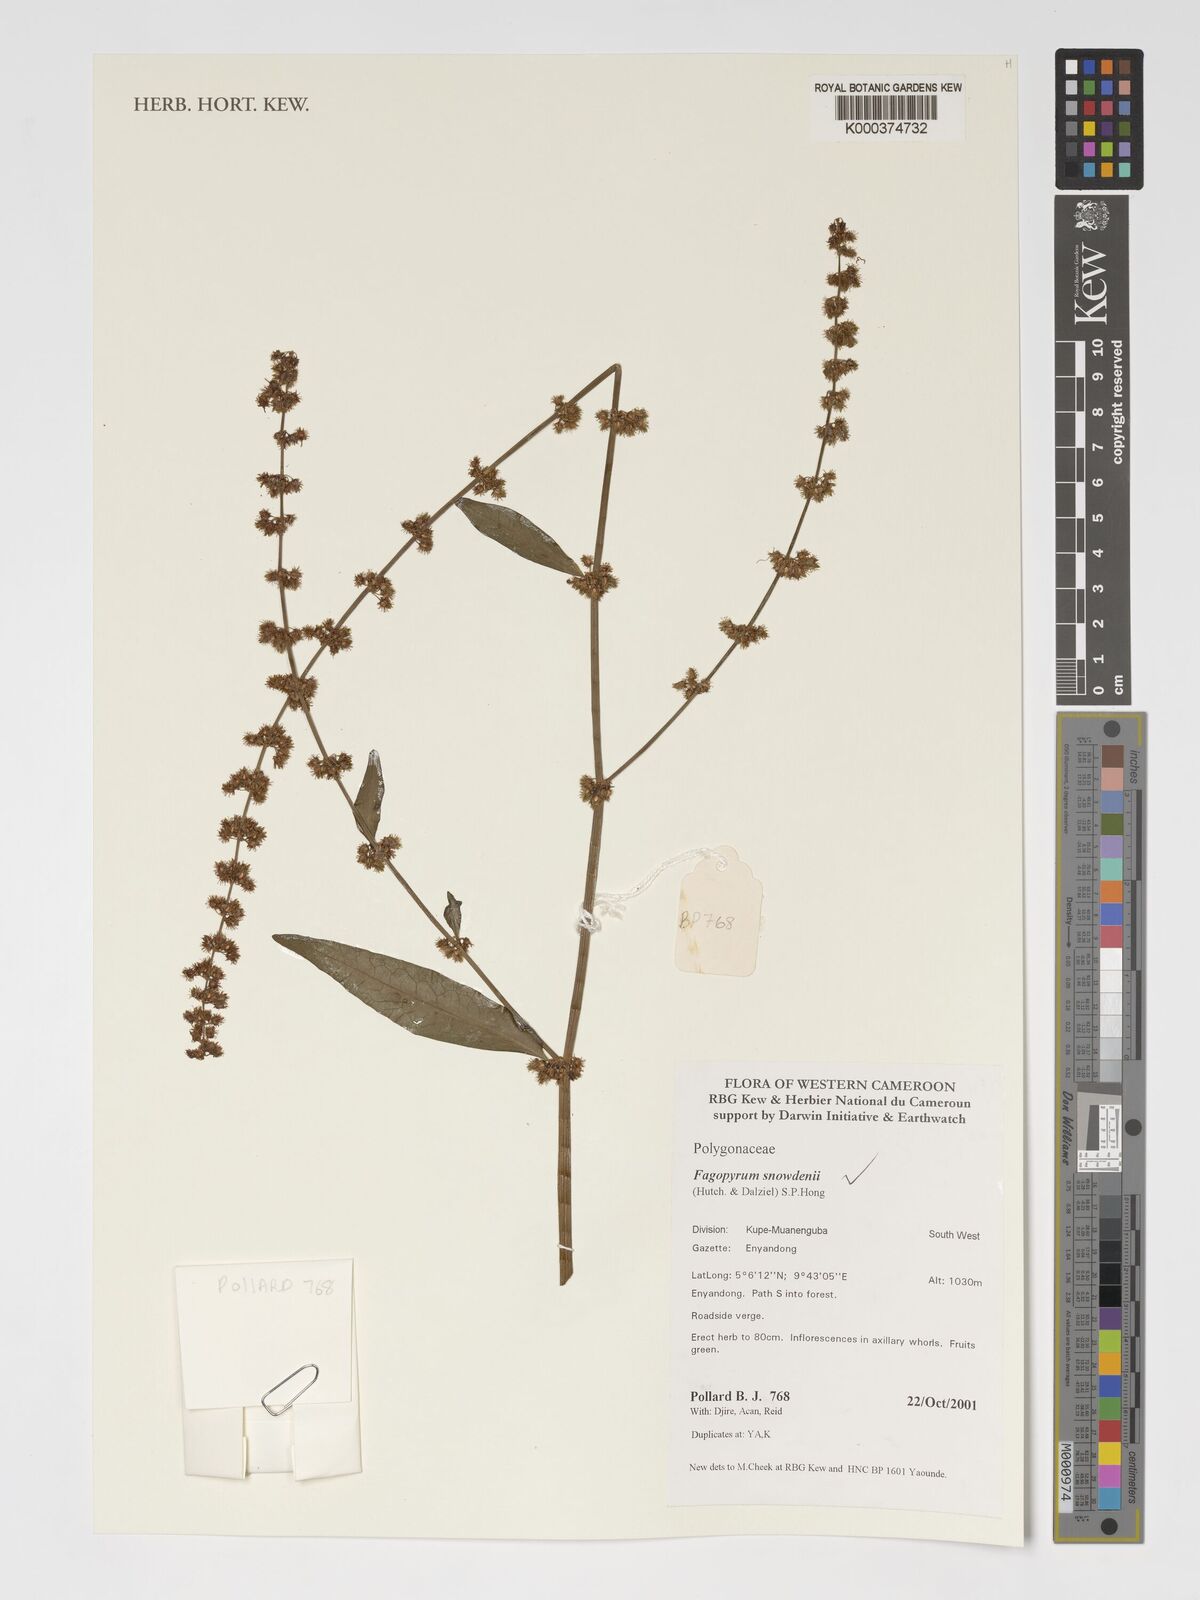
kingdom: Plantae
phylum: Tracheophyta
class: Magnoliopsida
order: Caryophyllales
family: Polygonaceae
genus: Harpagocarpus
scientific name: Harpagocarpus snowdenii
